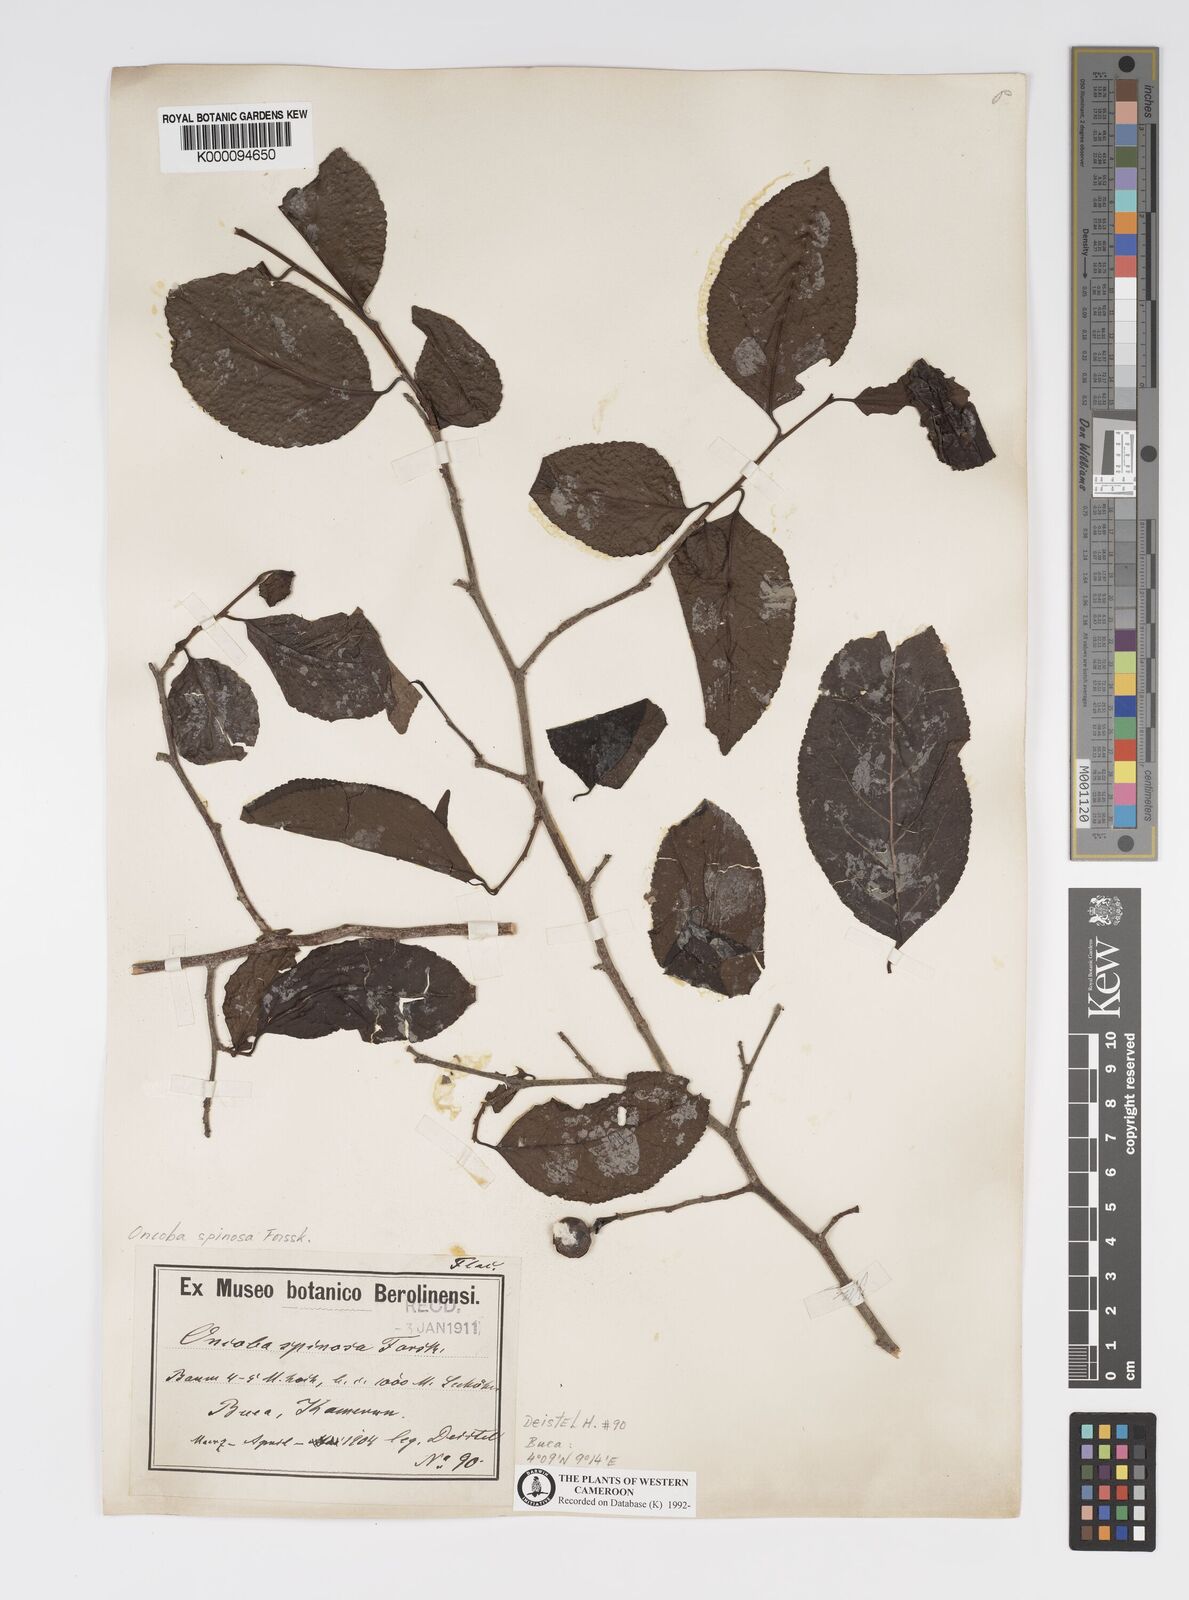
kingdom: Plantae
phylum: Tracheophyta
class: Magnoliopsida
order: Malpighiales
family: Salicaceae
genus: Oncoba
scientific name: Oncoba spinosa
